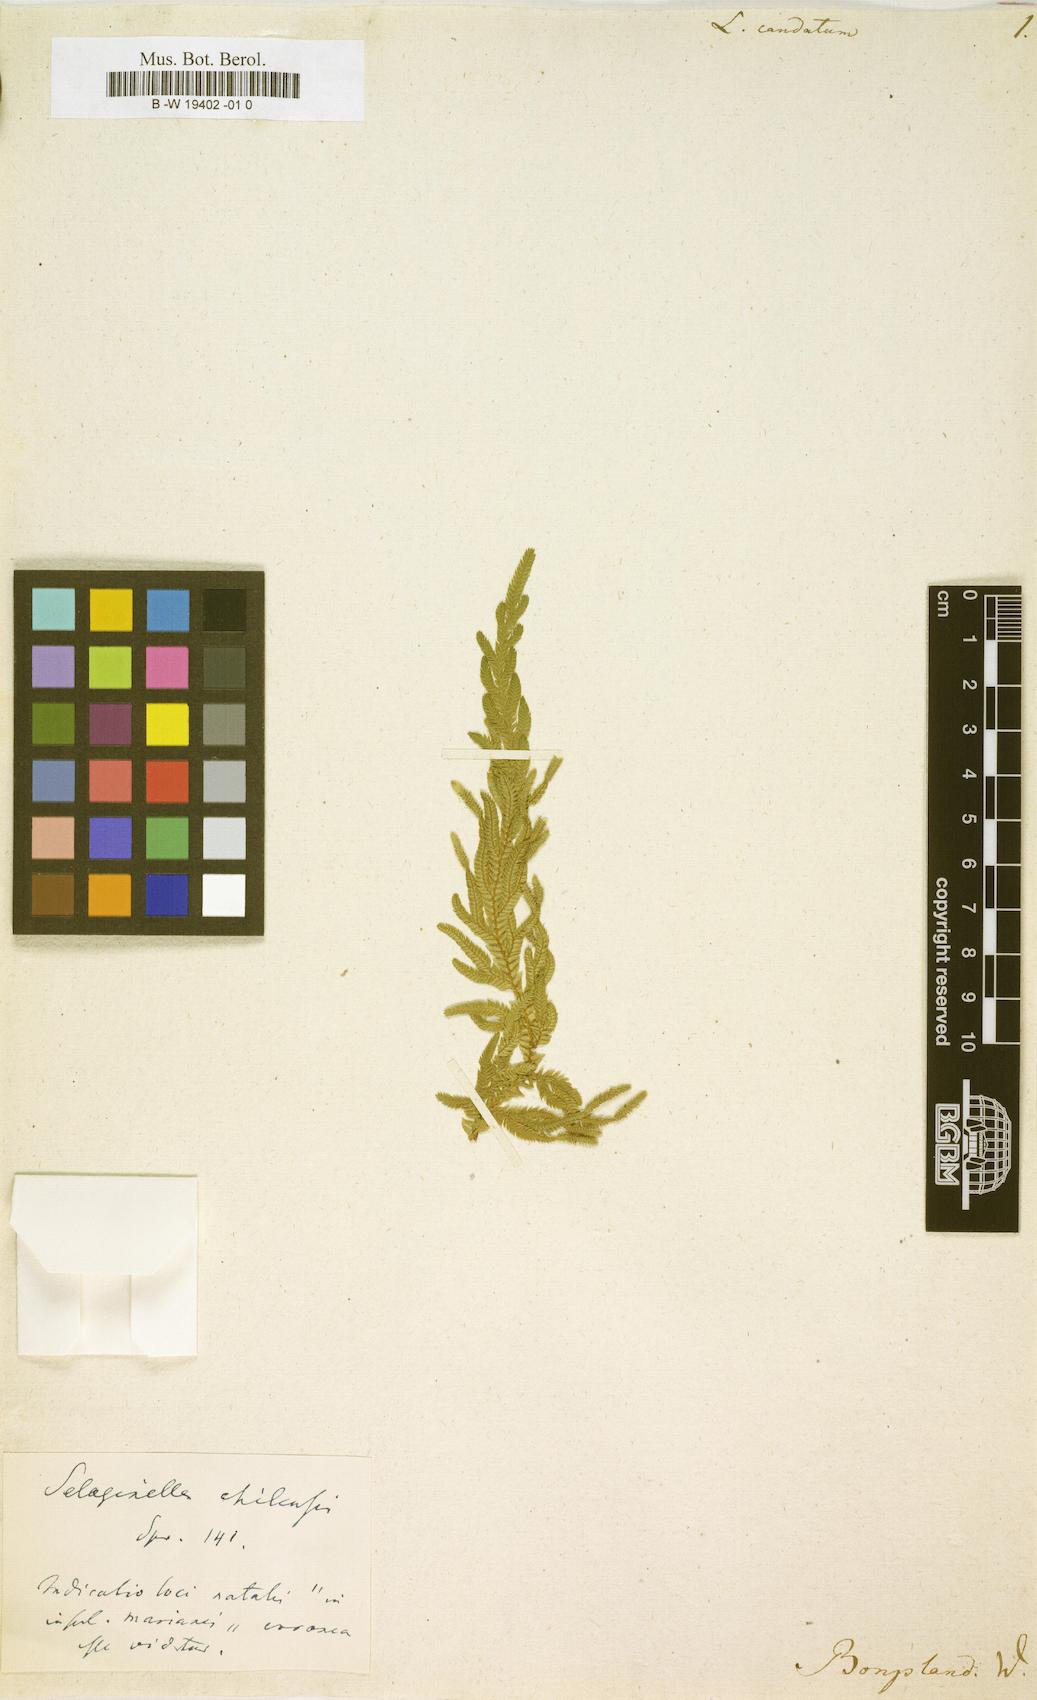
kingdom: Plantae
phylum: Tracheophyta
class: Lycopodiopsida
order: Selaginellales
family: Selaginellaceae
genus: Selaginella
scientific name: Selaginella caudata
